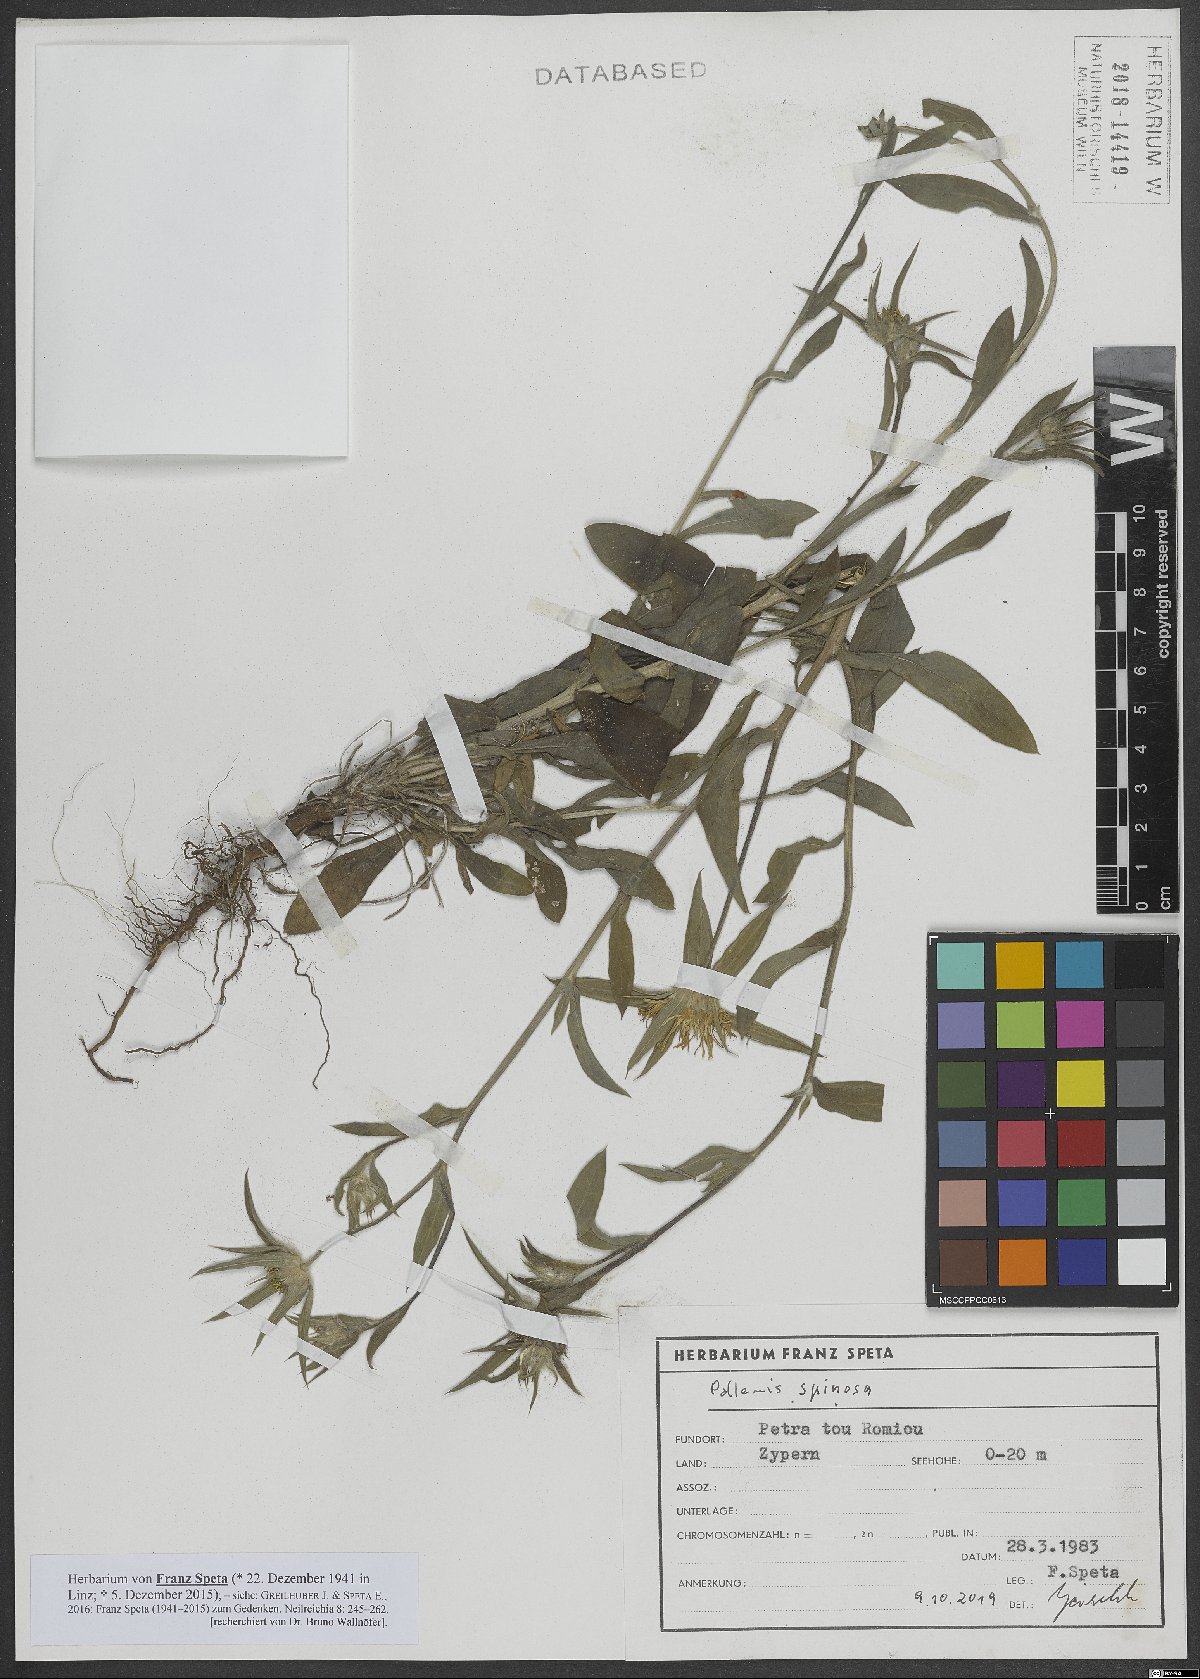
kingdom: Plantae
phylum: Tracheophyta
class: Magnoliopsida
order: Asterales
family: Asteraceae
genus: Pallenis
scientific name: Pallenis spinosa
